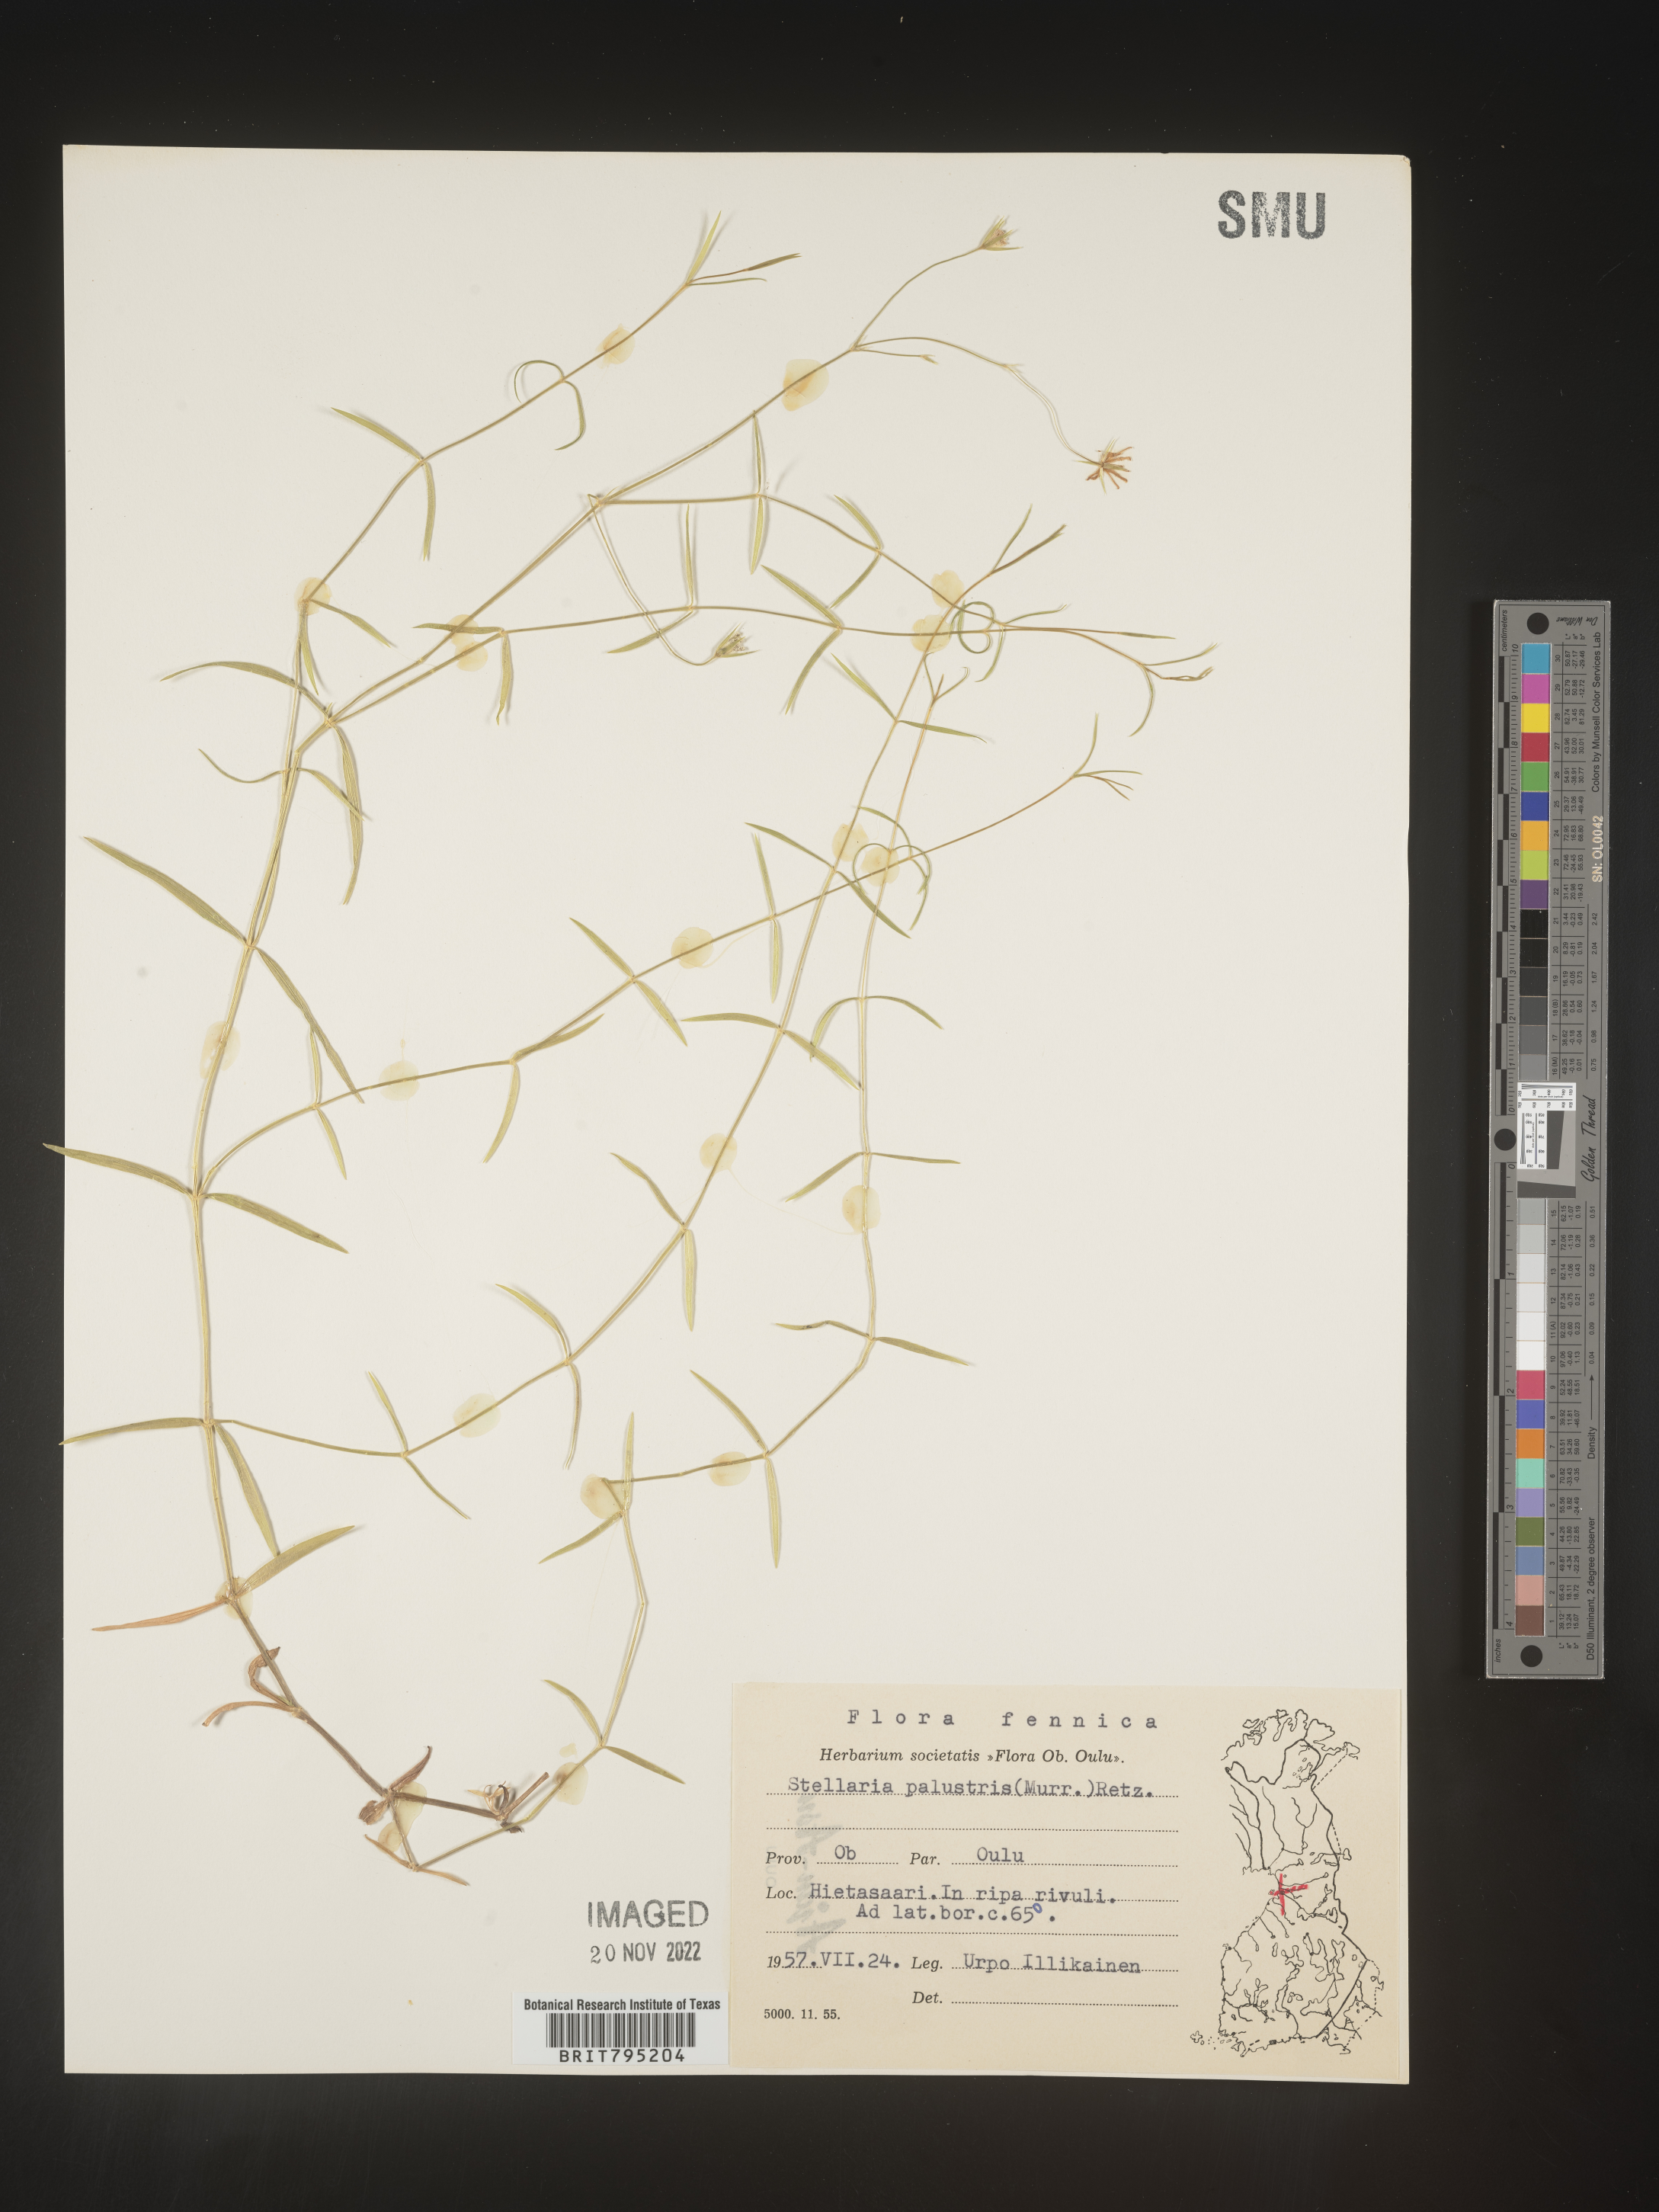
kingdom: Plantae
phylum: Tracheophyta
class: Magnoliopsida
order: Caryophyllales
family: Caryophyllaceae
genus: Stellaria
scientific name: Stellaria
